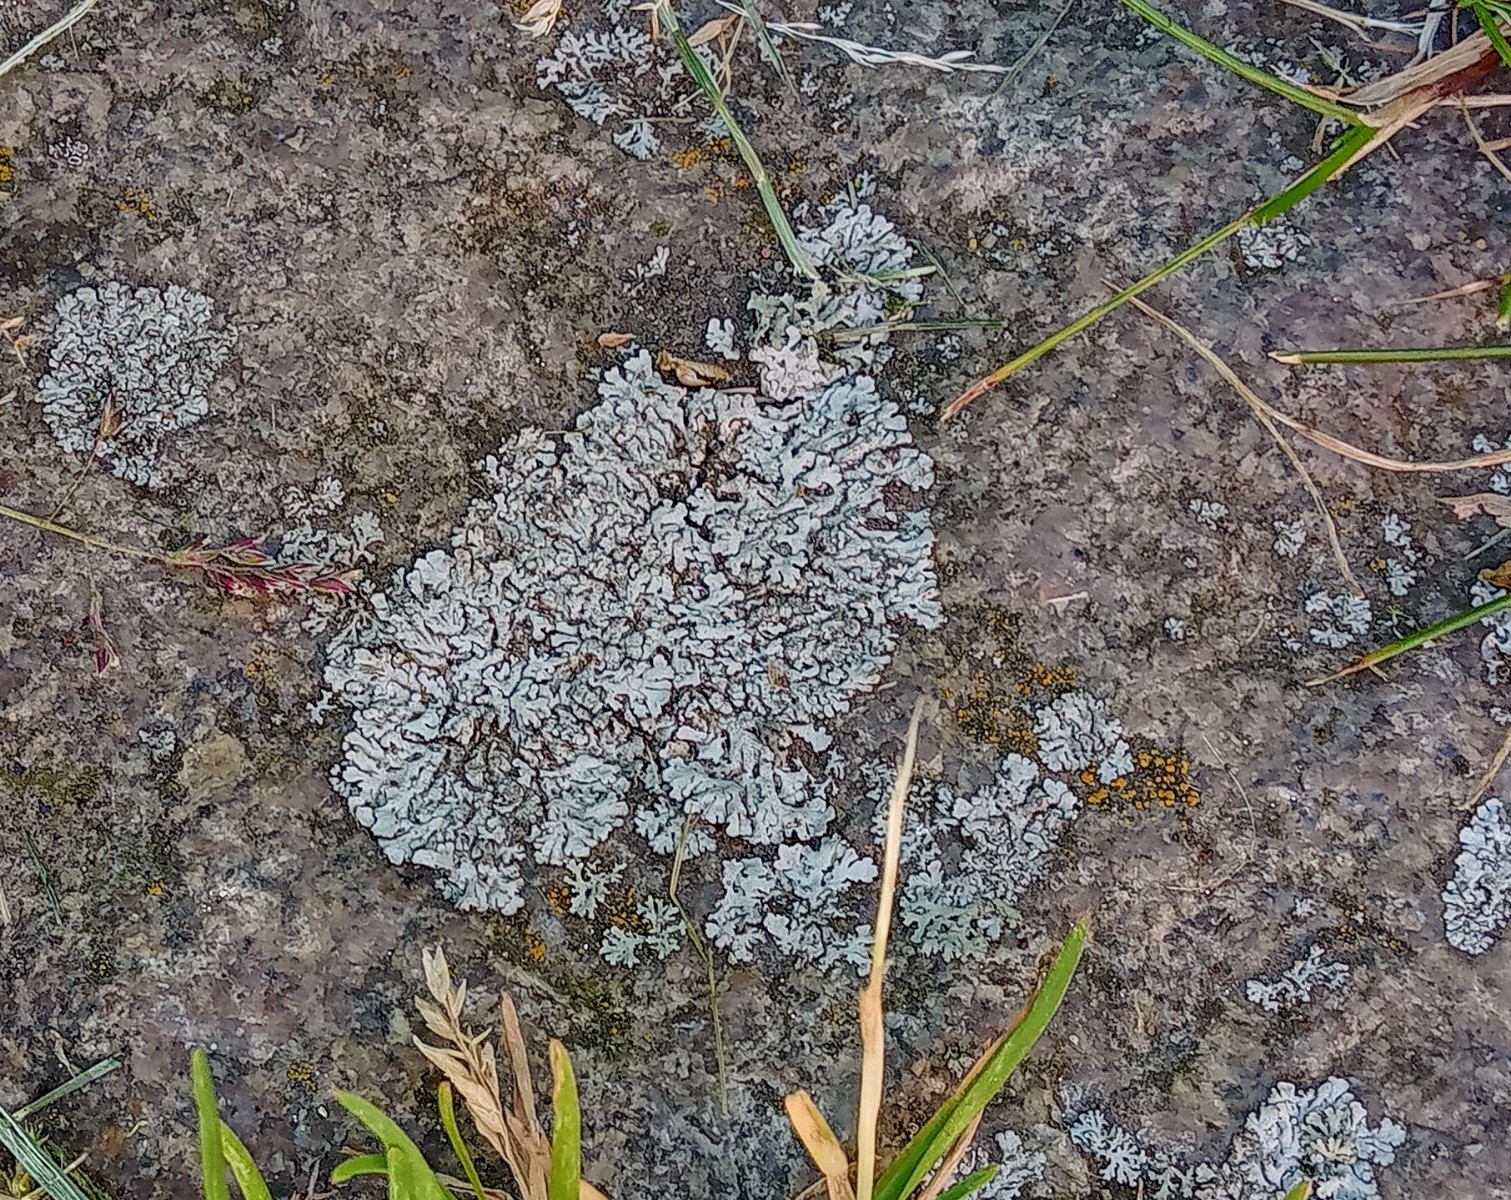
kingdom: Fungi
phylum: Ascomycota
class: Lecanoromycetes
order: Caliciales
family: Physciaceae
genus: Physcia
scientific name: Physcia caesia
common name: blågrå rosetlav
